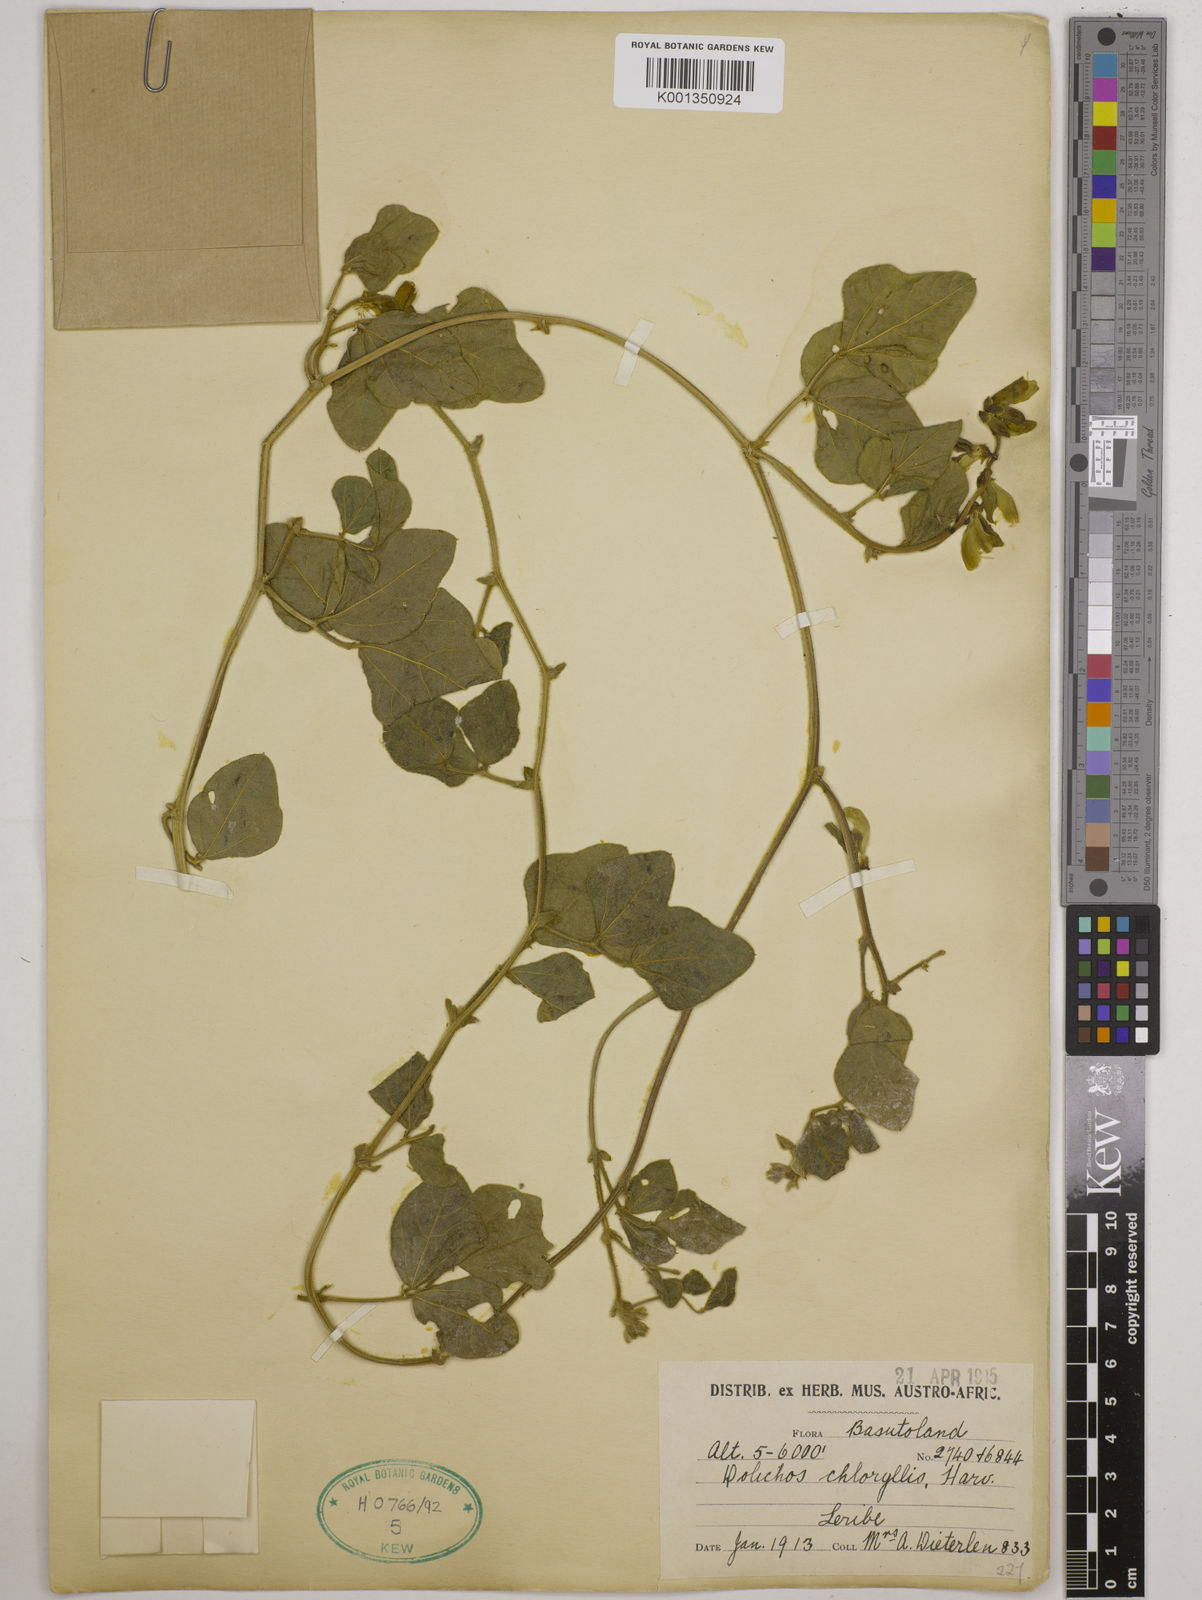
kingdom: Plantae
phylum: Tracheophyta
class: Magnoliopsida
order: Fabales
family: Fabaceae
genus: Dolichos
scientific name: Dolichos pratensis
